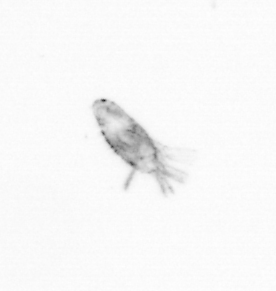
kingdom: Animalia
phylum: Arthropoda
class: Copepoda
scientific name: Copepoda
